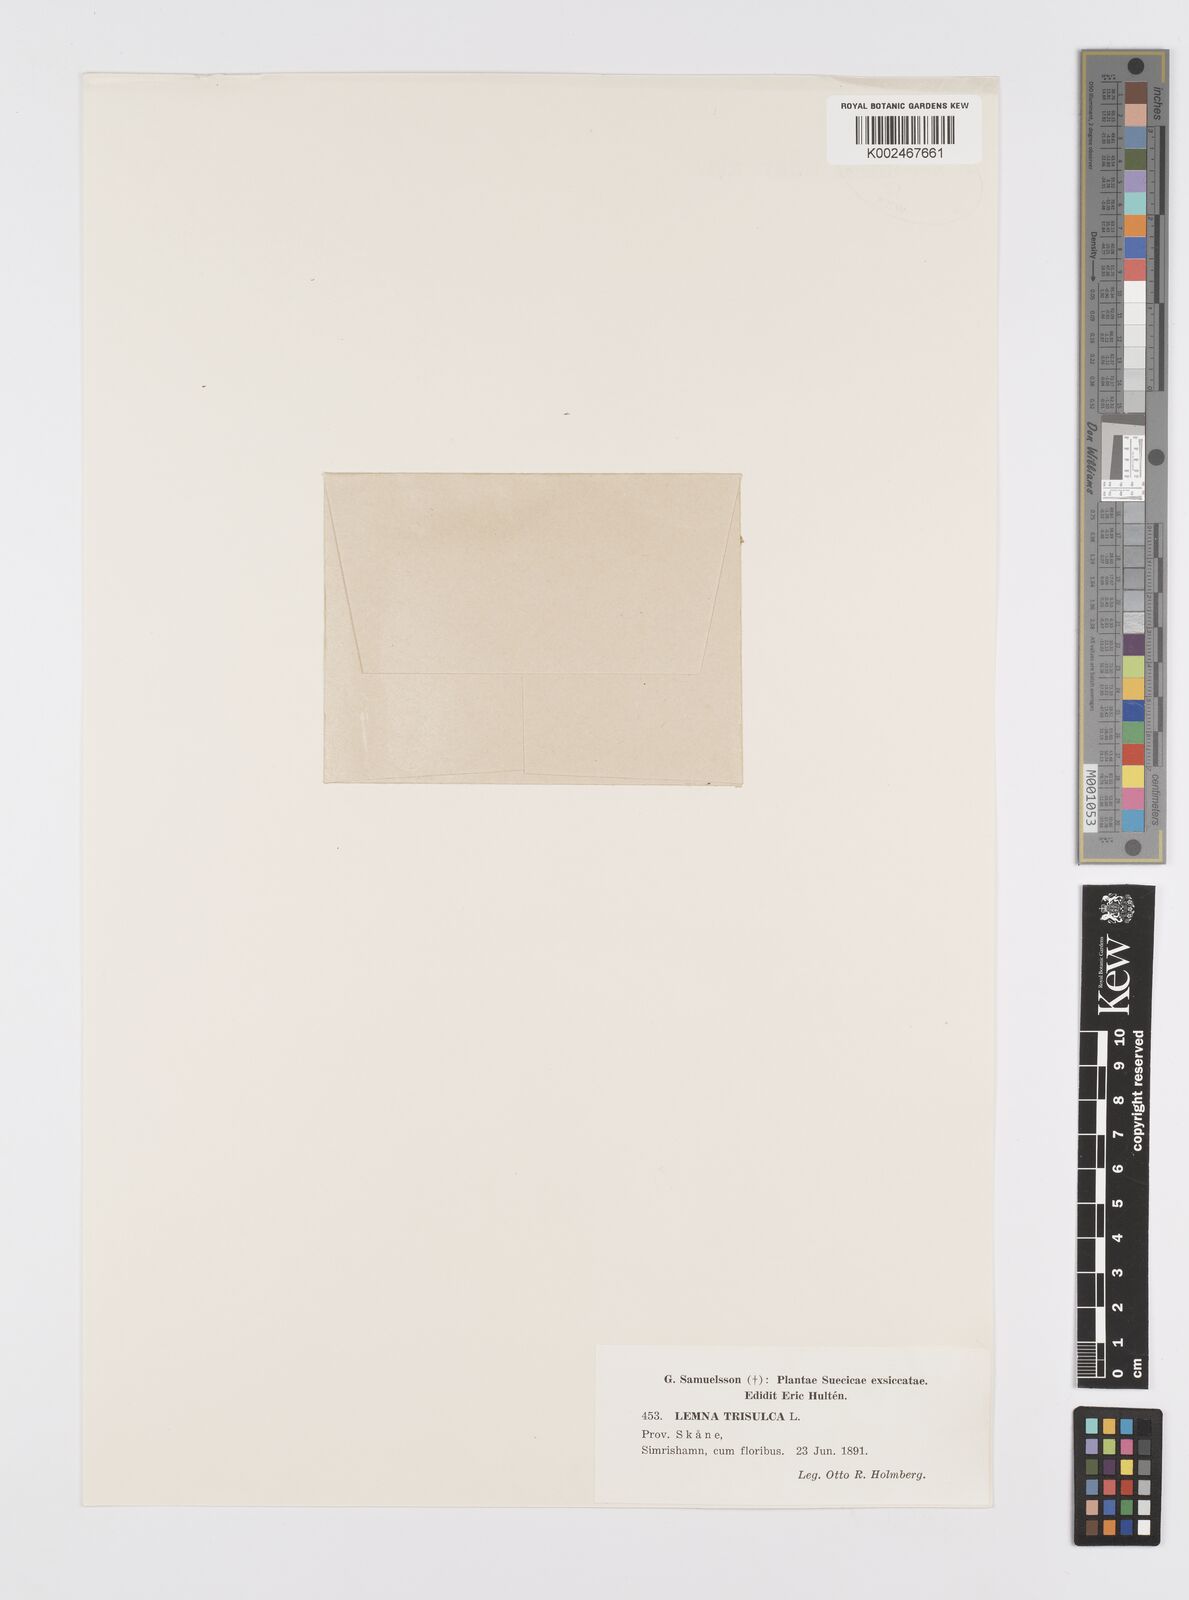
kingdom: Plantae
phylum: Tracheophyta
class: Liliopsida
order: Alismatales
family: Araceae
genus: Lemna
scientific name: Lemna trisulca
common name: Ivy-leaved duckweed
